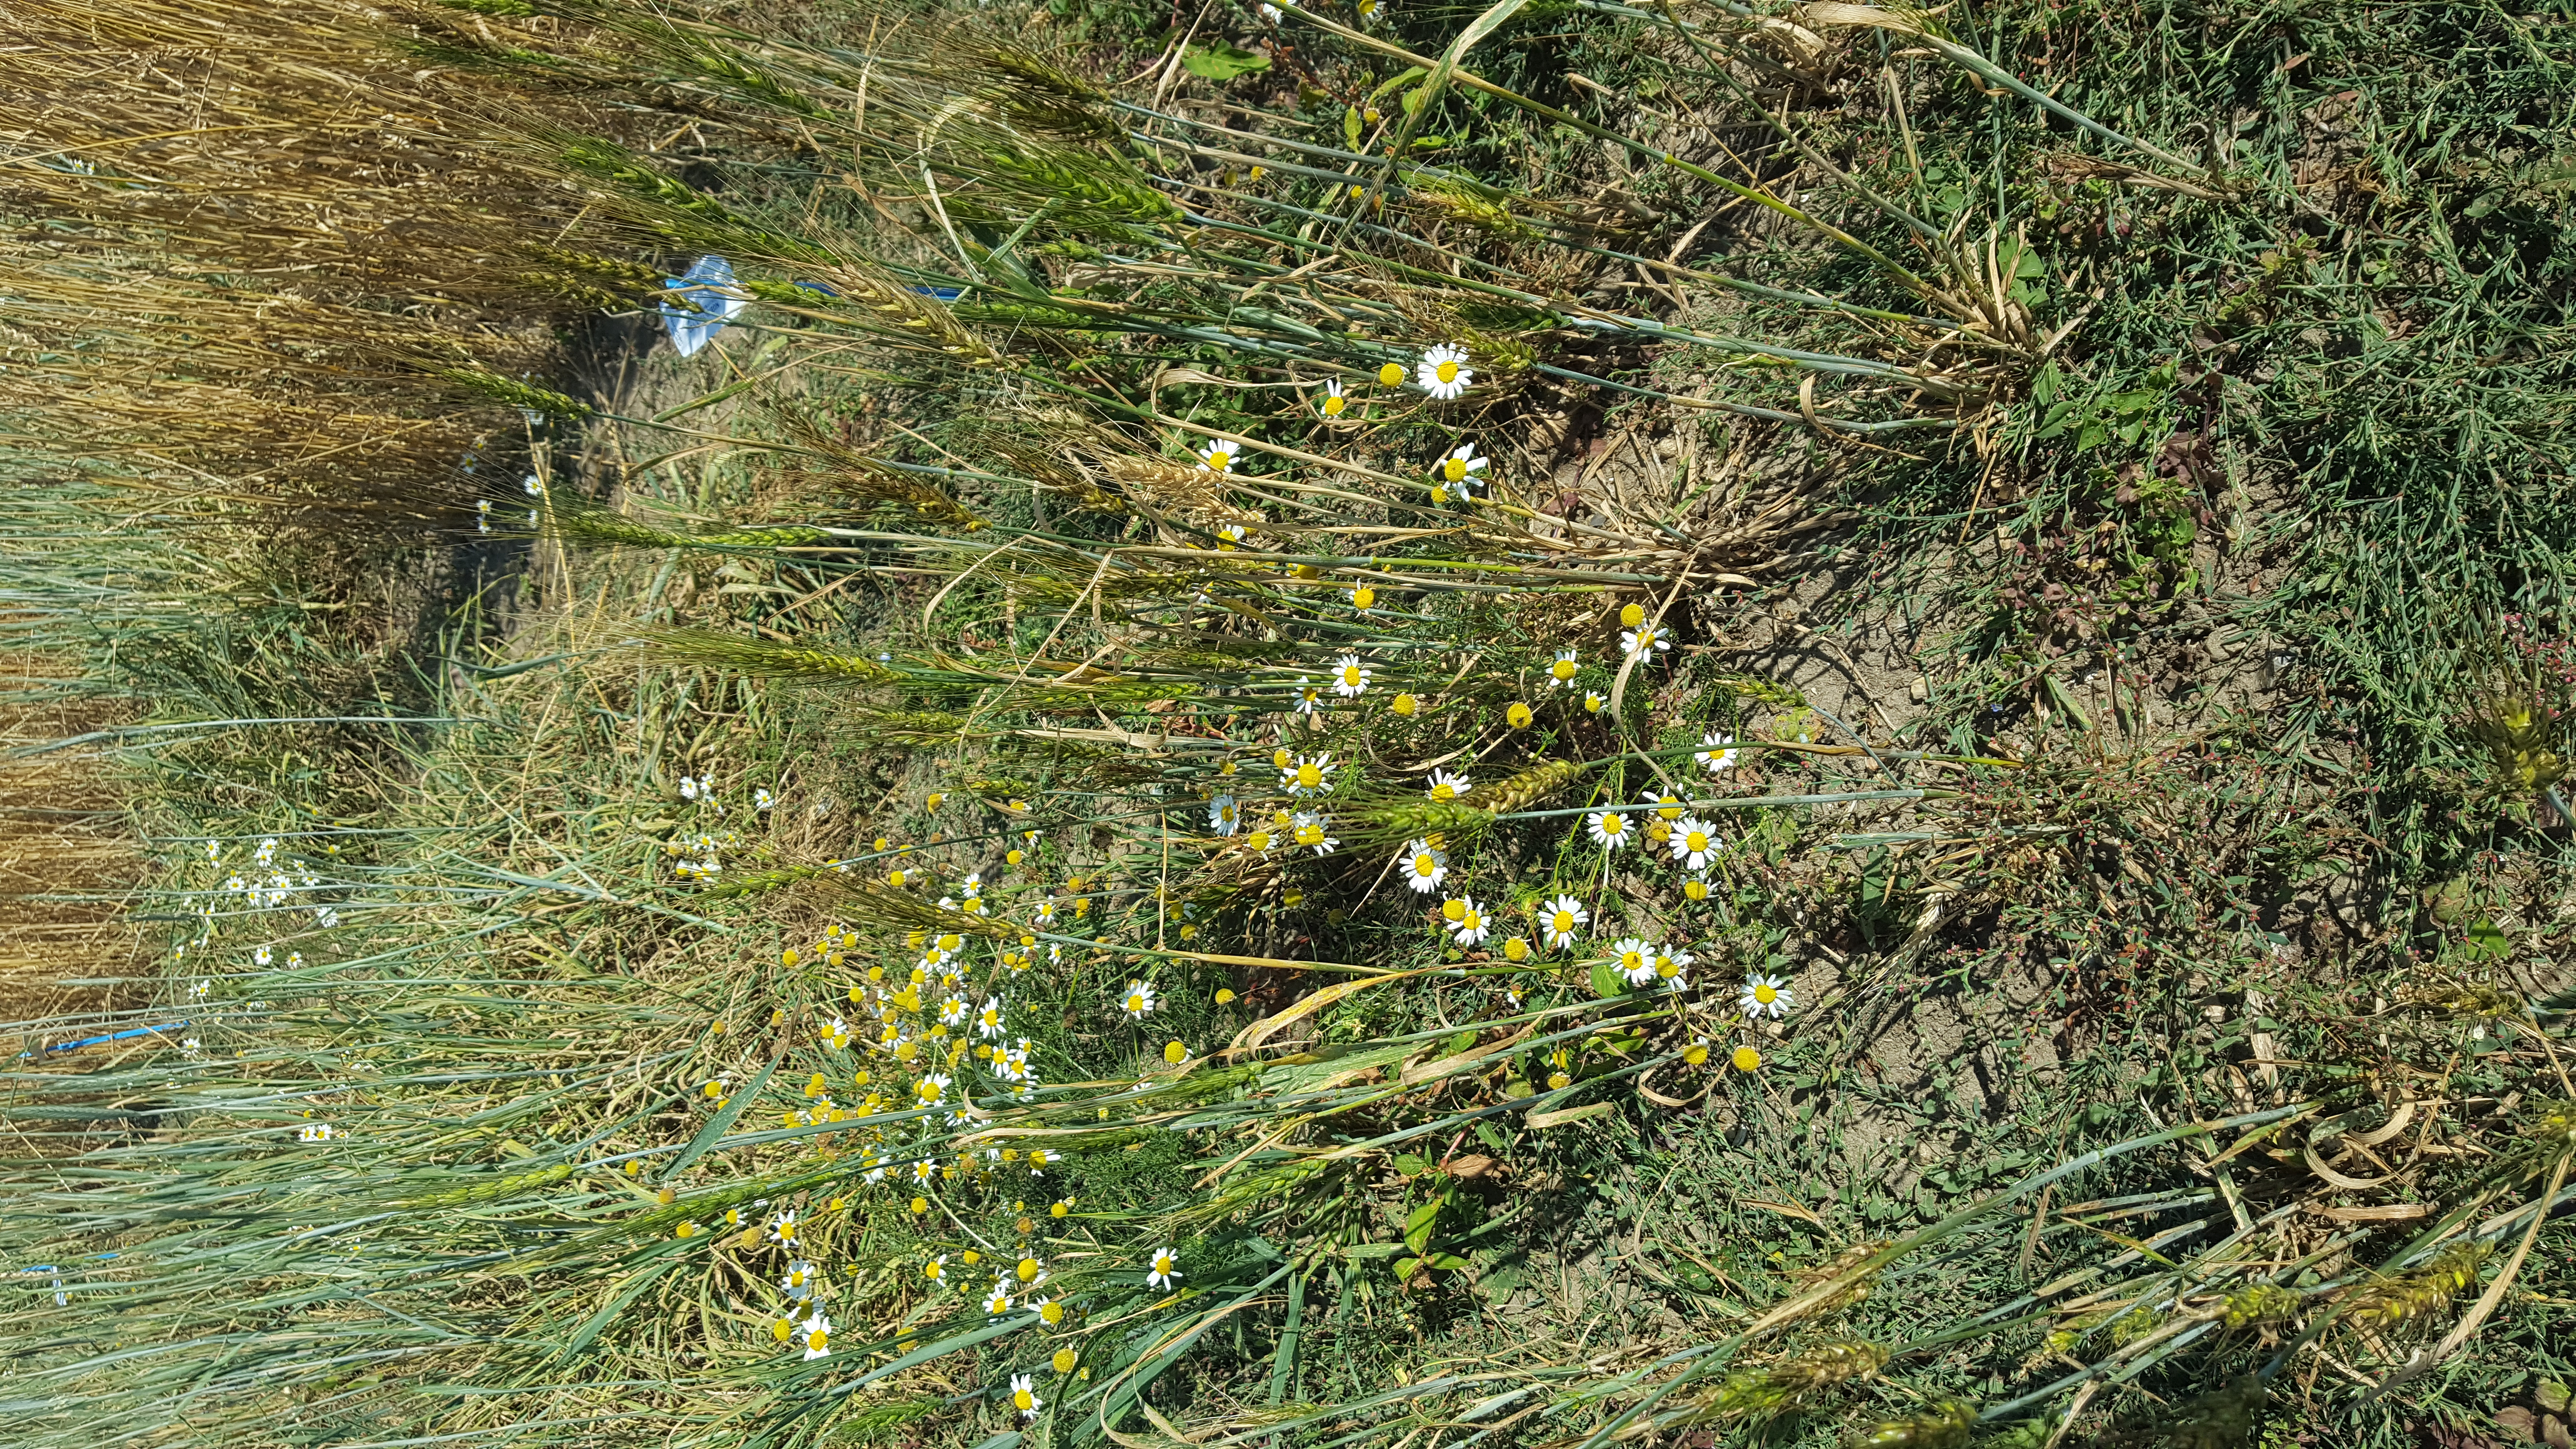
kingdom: Plantae
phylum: Tracheophyta
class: Liliopsida
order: Poales
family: Poaceae
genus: Triticum
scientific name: Triticum aestivum
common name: Common wheat
